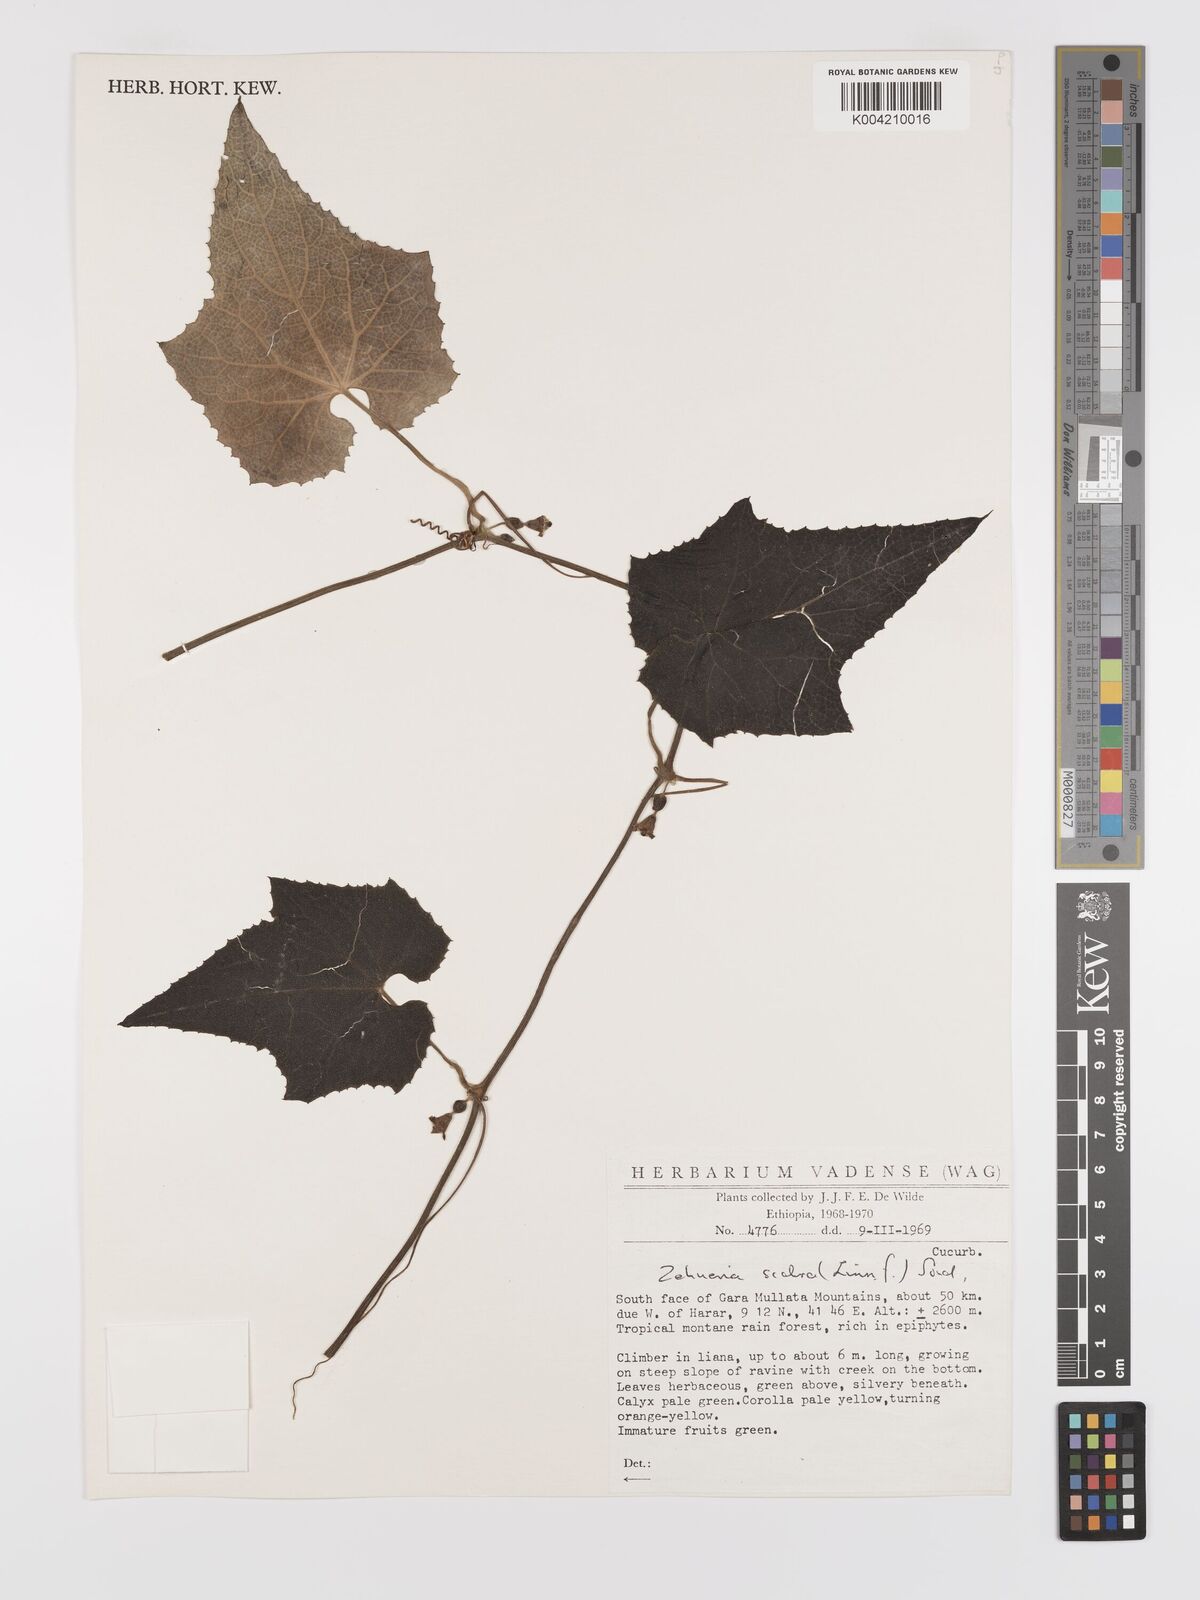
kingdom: Plantae
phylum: Tracheophyta
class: Magnoliopsida
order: Cucurbitales
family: Cucurbitaceae
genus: Zehneria
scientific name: Zehneria scabra
